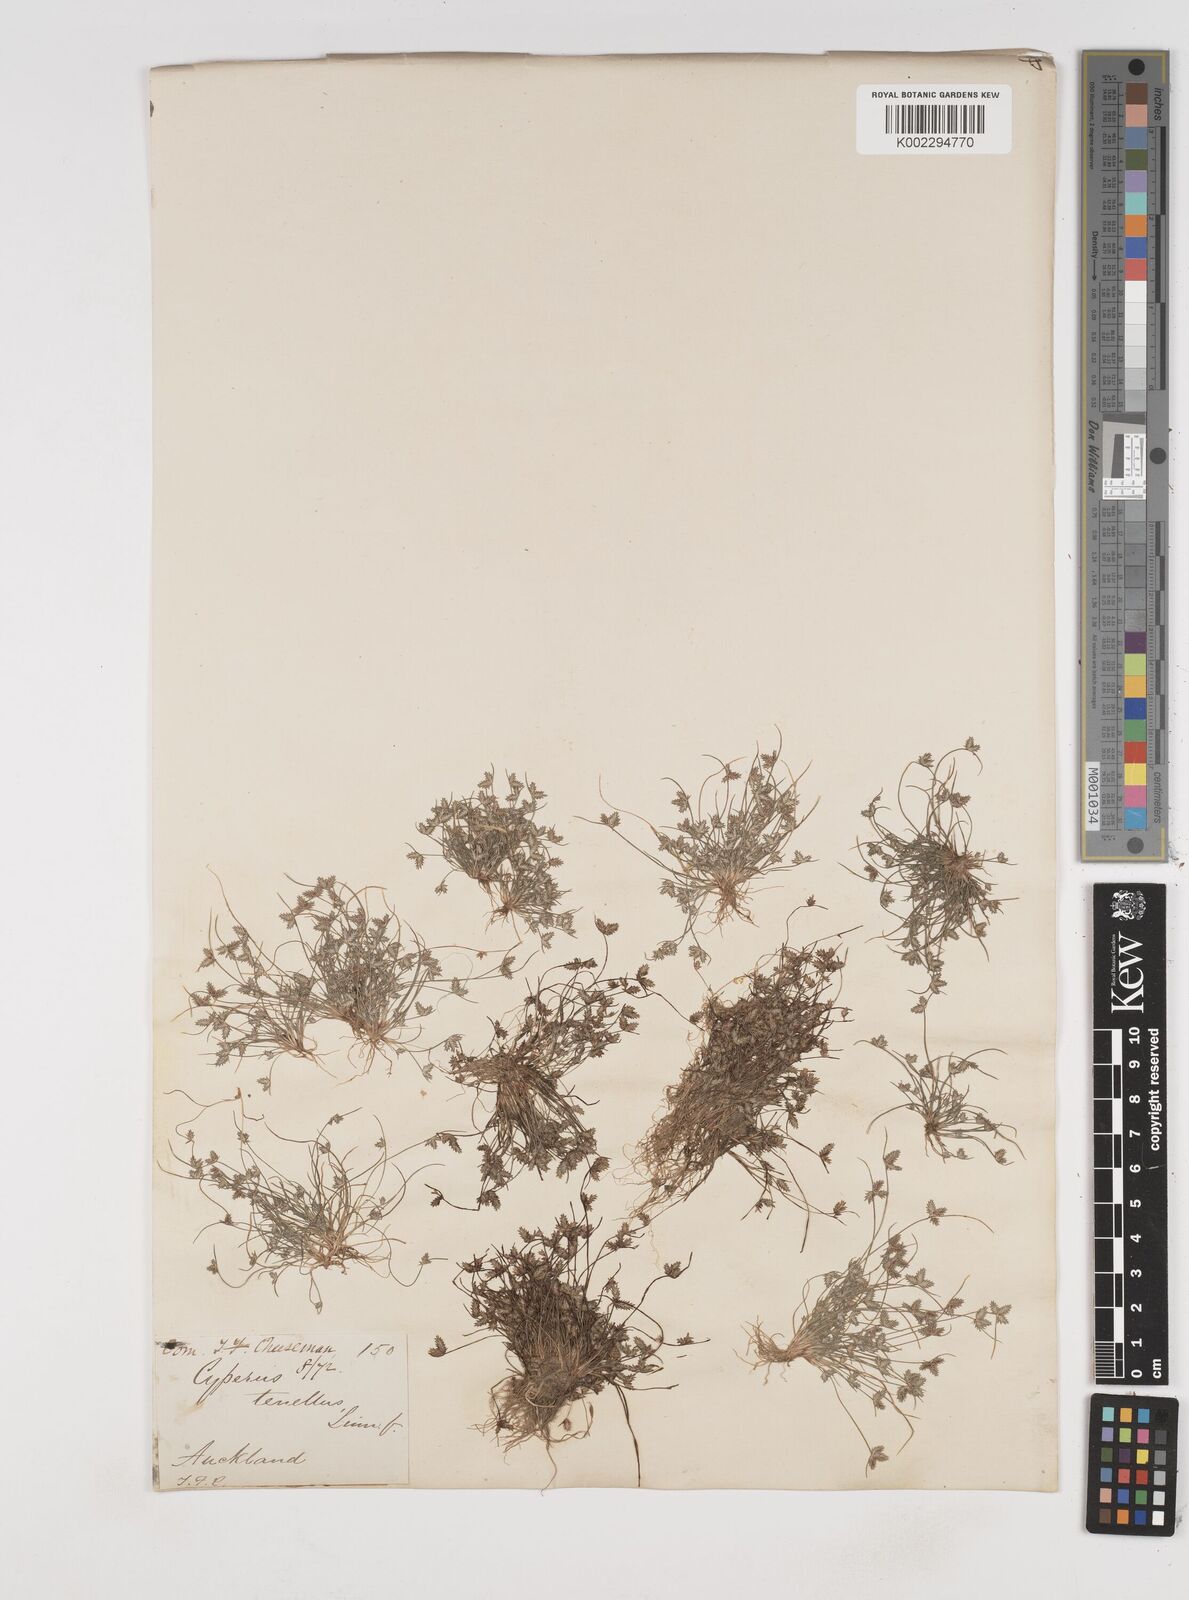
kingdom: Plantae
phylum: Tracheophyta
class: Liliopsida
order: Poales
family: Cyperaceae
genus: Cyperus
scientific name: Cyperus gracilis
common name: Slimjim flatsedge
